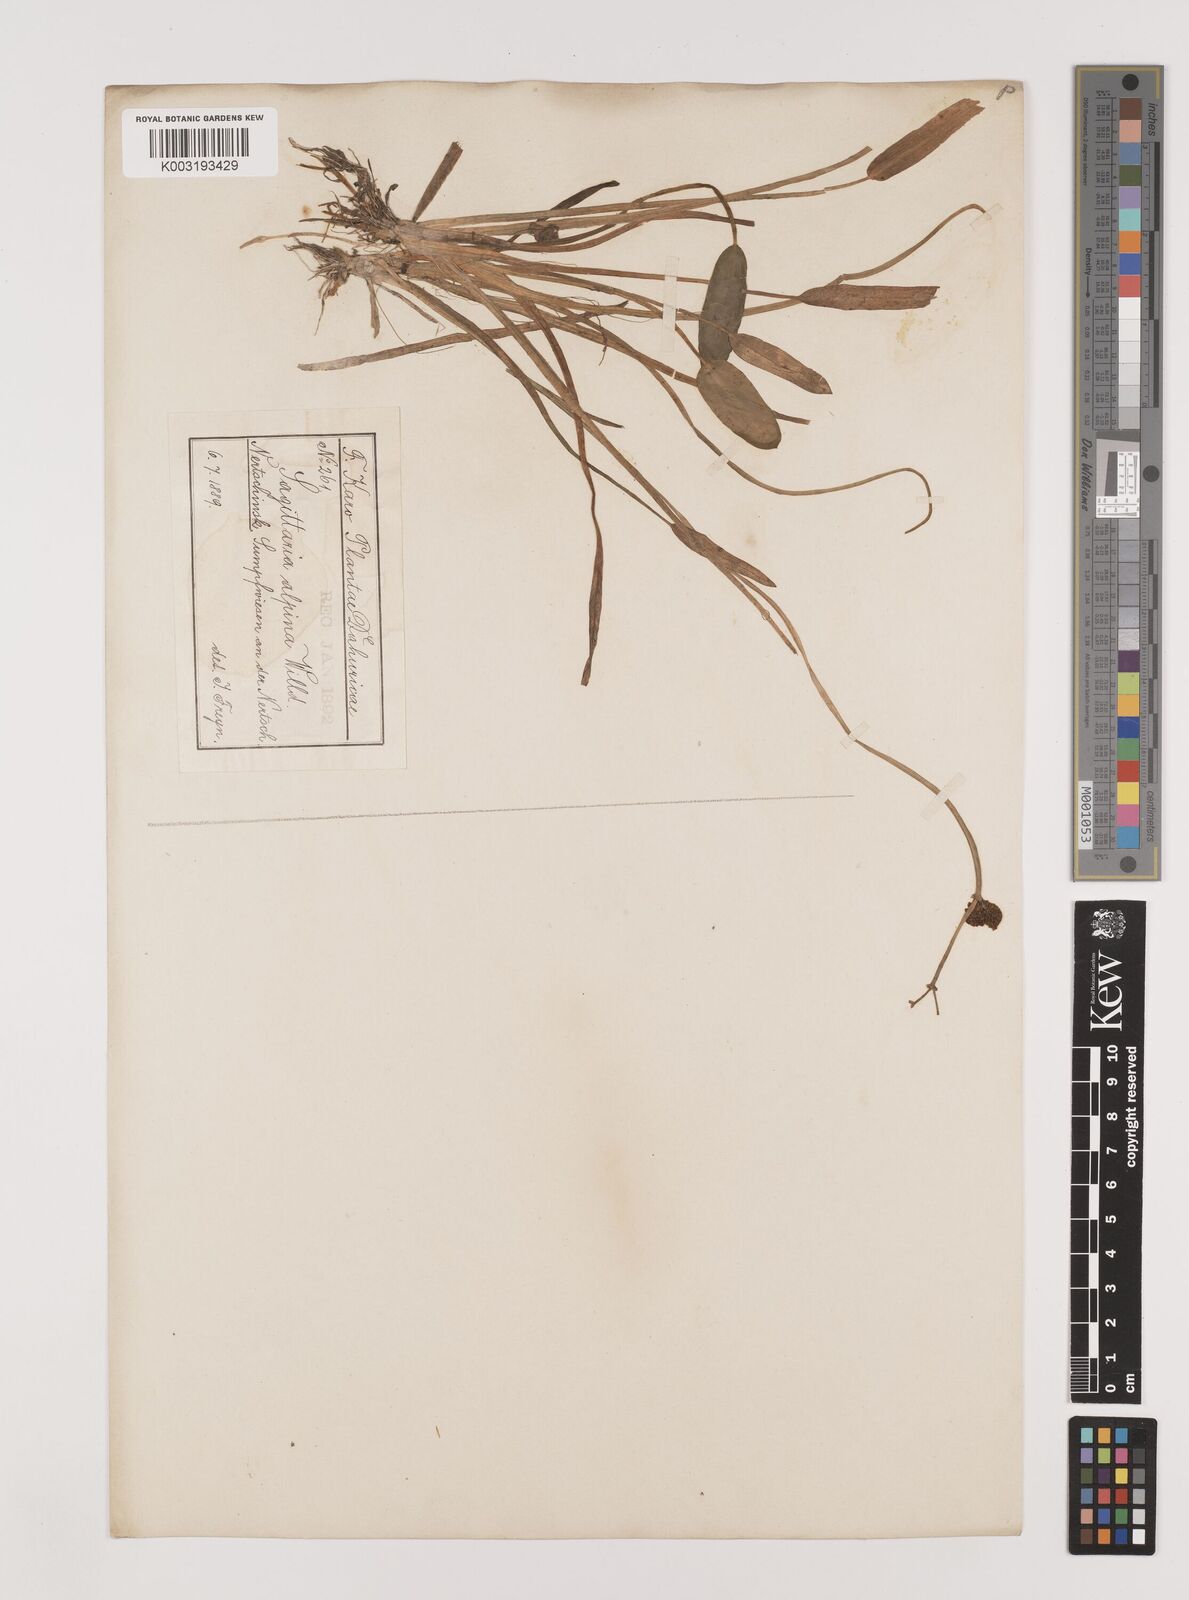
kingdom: Plantae
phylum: Tracheophyta
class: Liliopsida
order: Alismatales
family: Alismataceae
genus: Sagittaria
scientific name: Sagittaria natans
